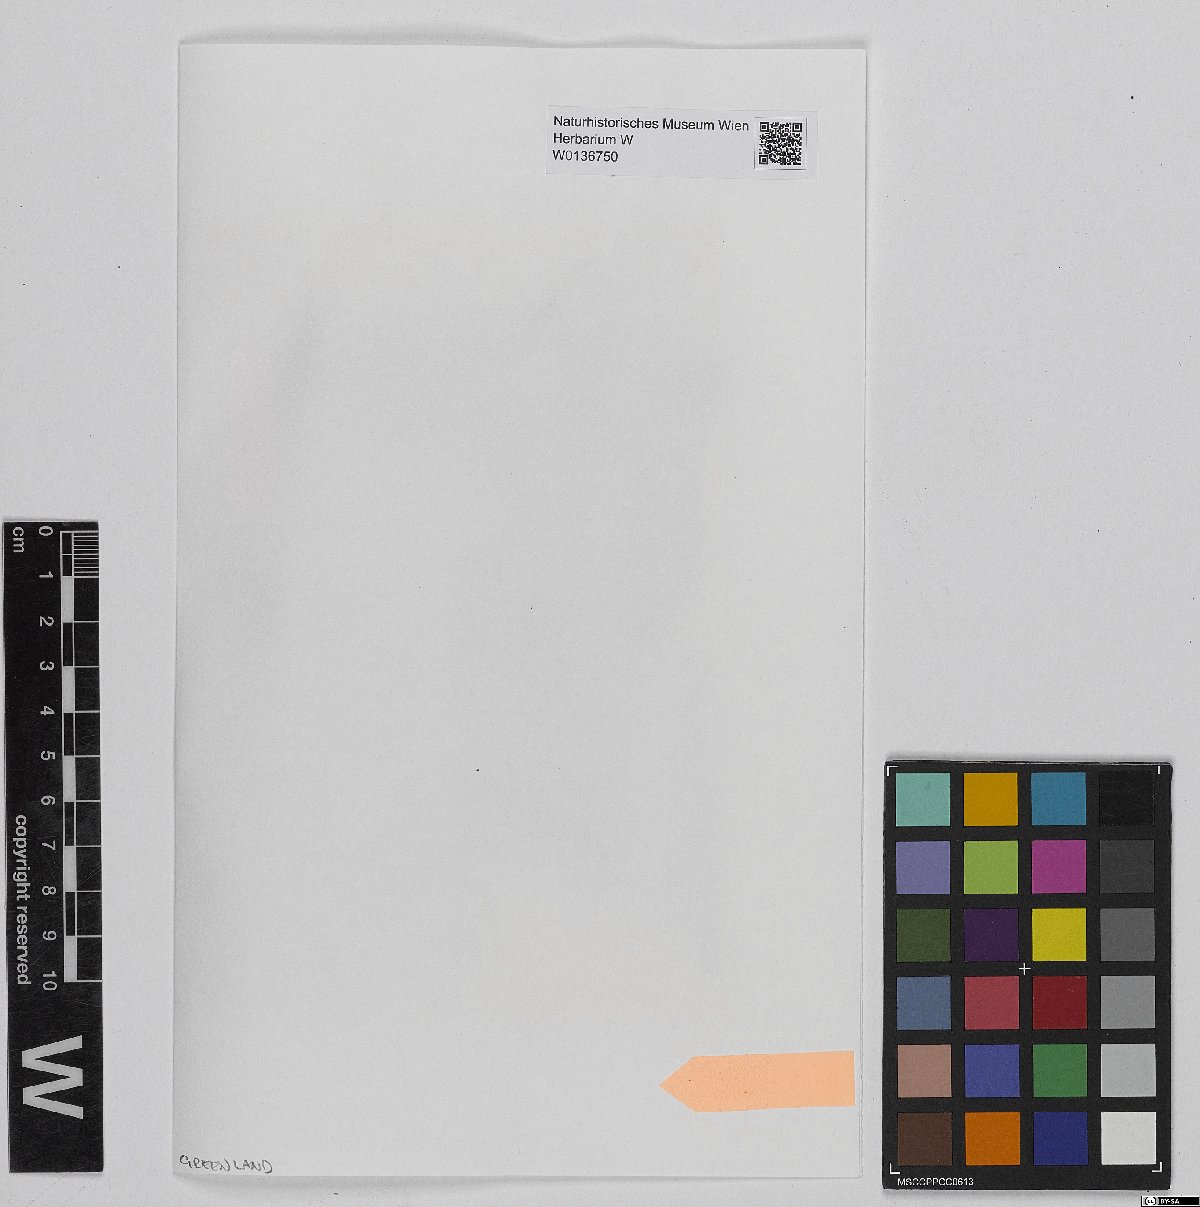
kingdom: Plantae
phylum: Bryophyta
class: Sphagnopsida
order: Sphagnales
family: Sphagnaceae
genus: Sphagnum
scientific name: Sphagnum fimbriatum
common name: Fringed peat moss
